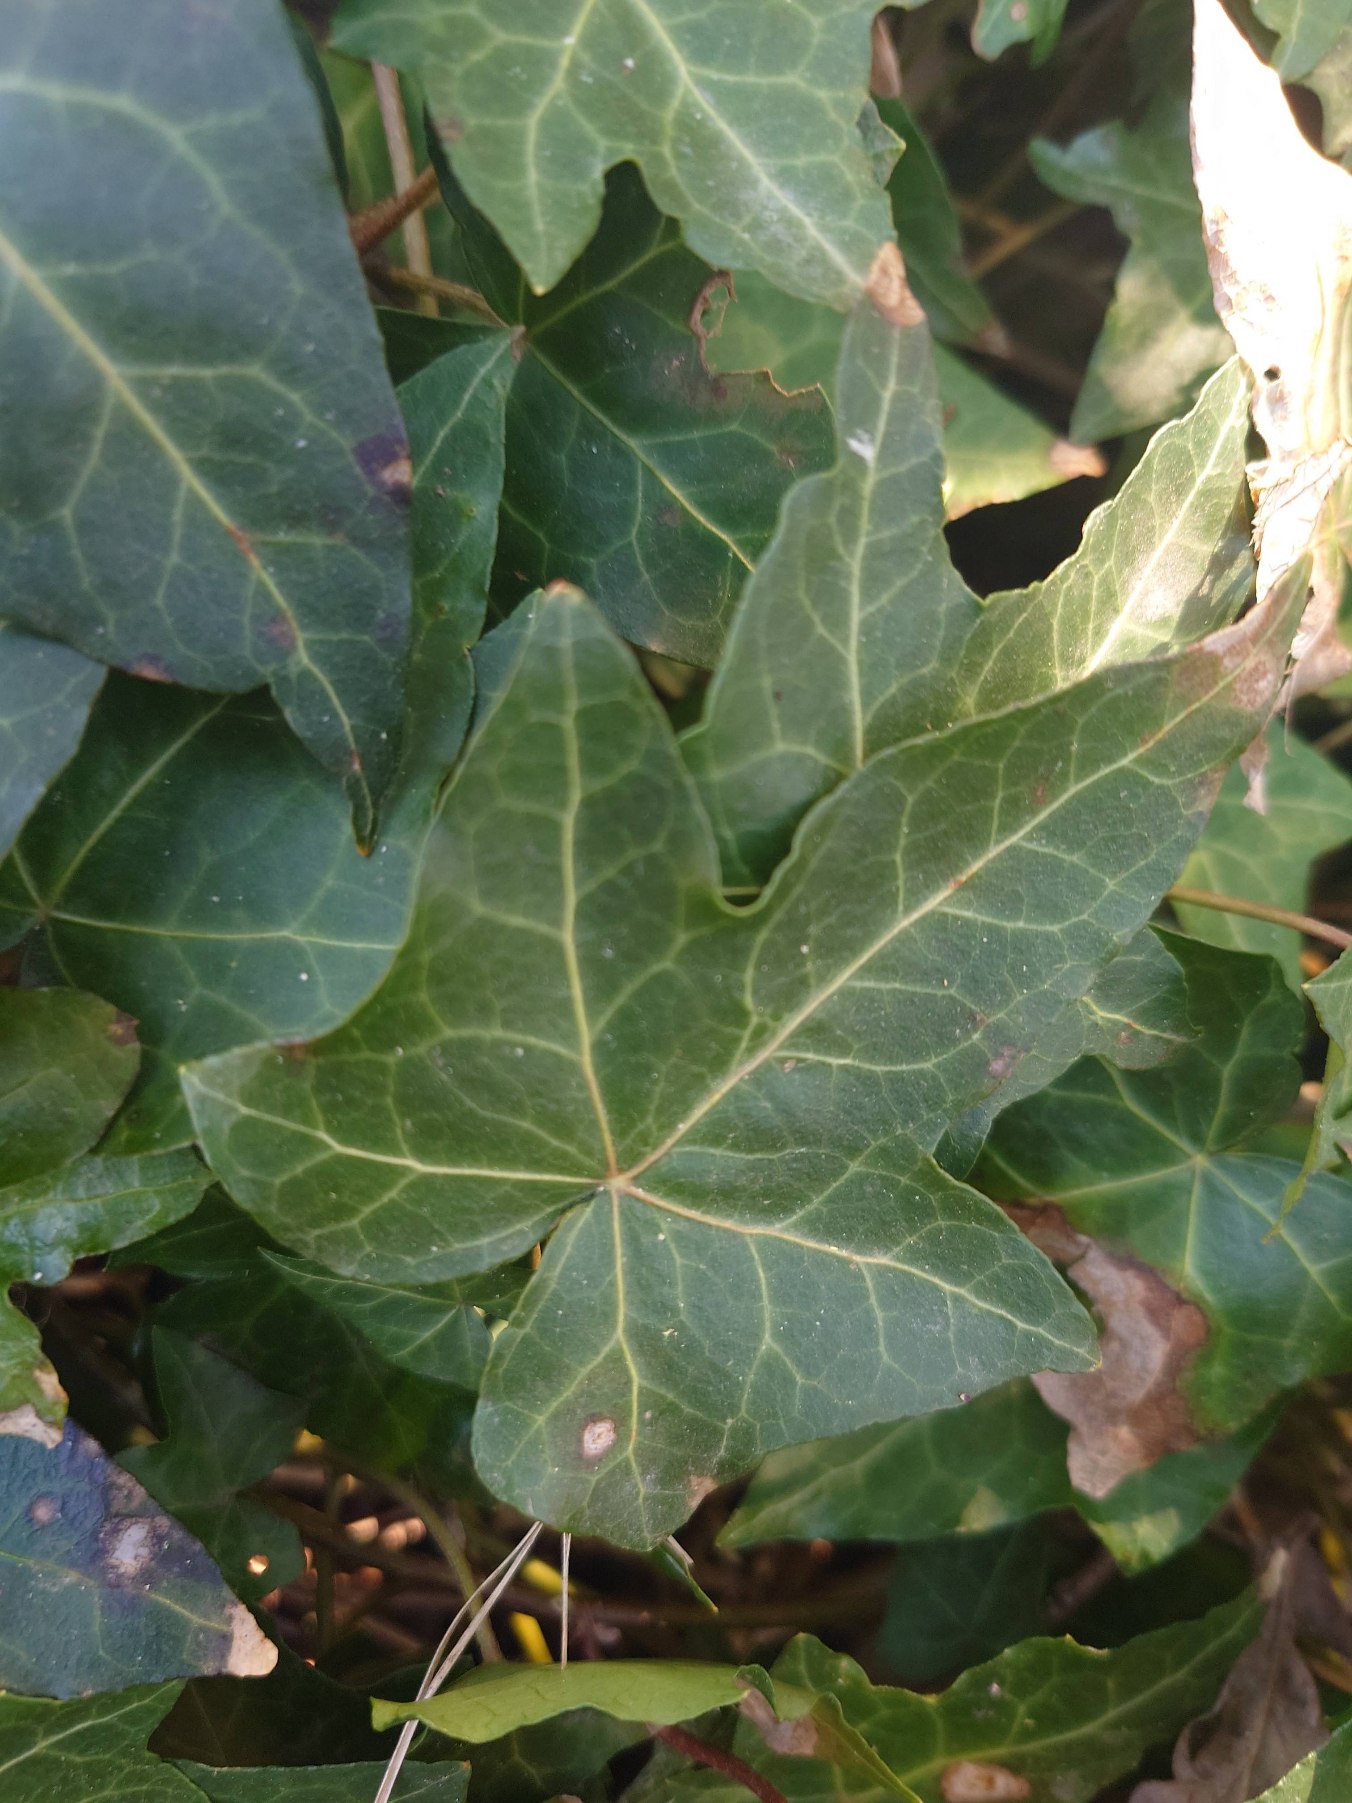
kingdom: Plantae
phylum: Tracheophyta
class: Magnoliopsida
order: Apiales
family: Araliaceae
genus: Hedera
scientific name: Hedera helix
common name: Vedbend
